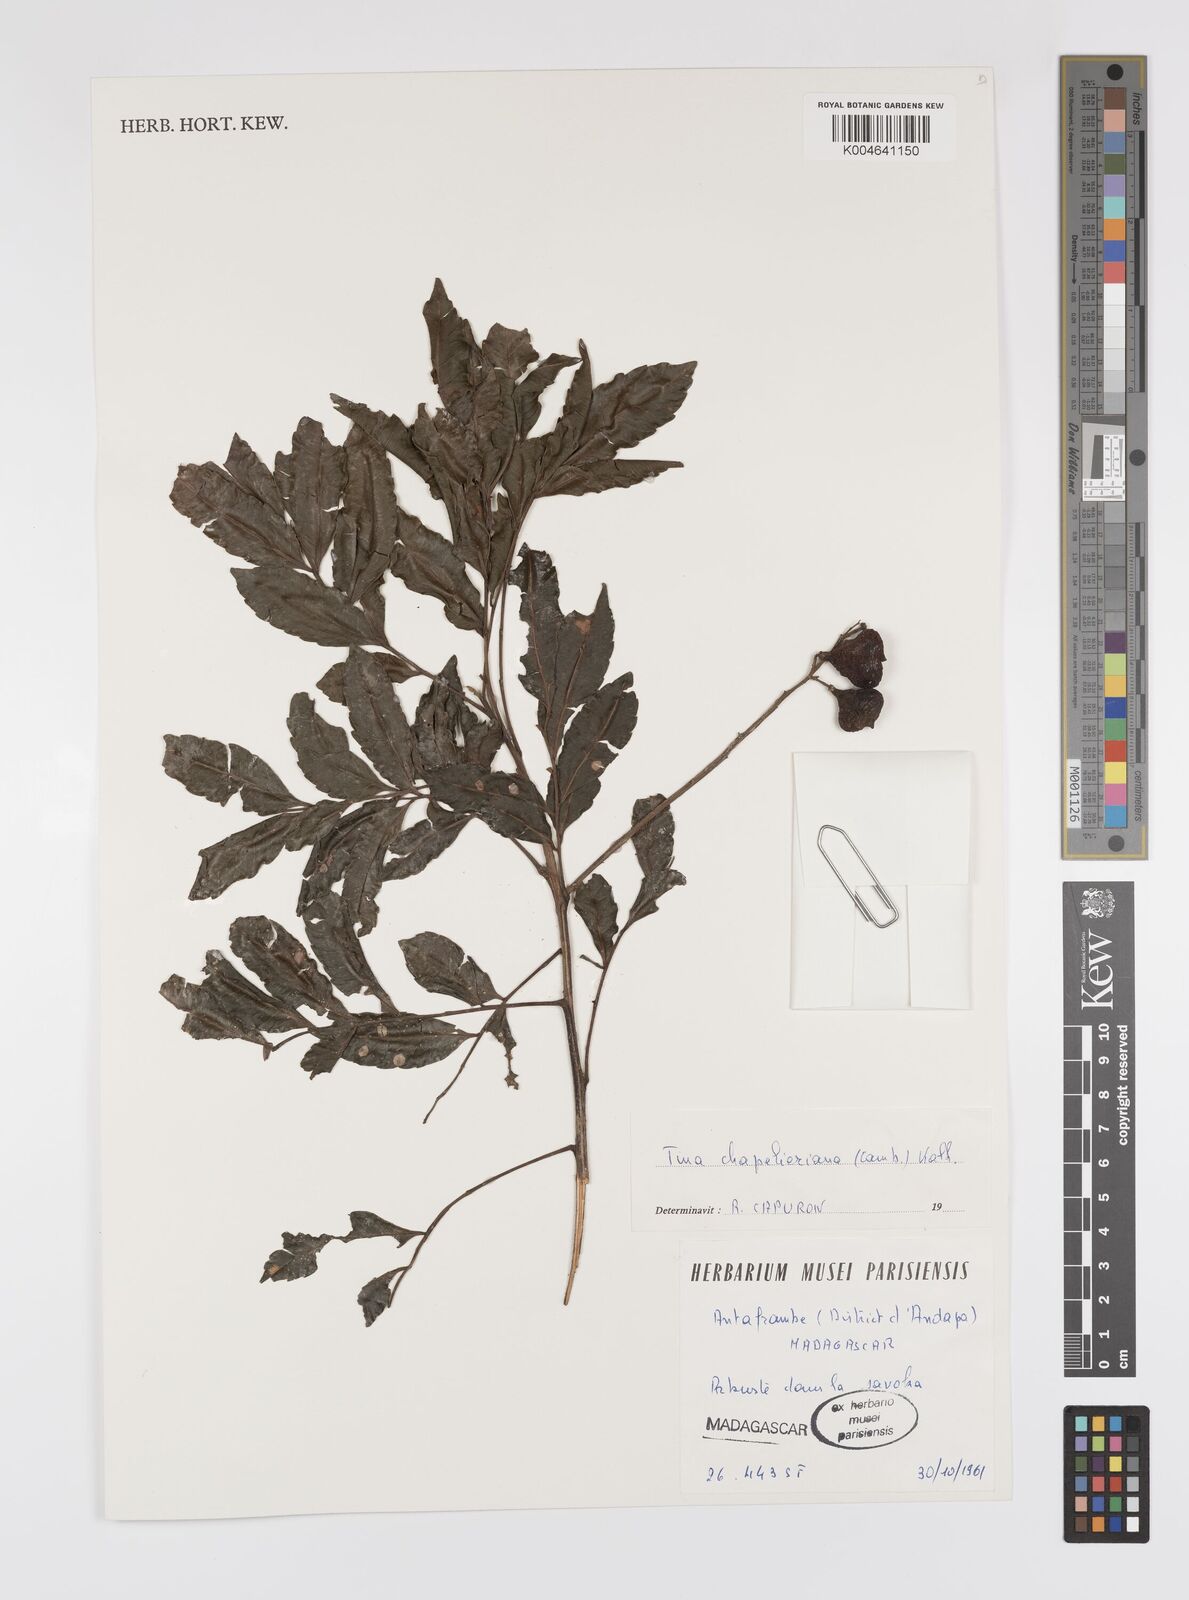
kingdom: Plantae
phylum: Tracheophyta
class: Magnoliopsida
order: Sapindales
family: Sapindaceae
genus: Tina
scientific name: Tina chapelieriana
